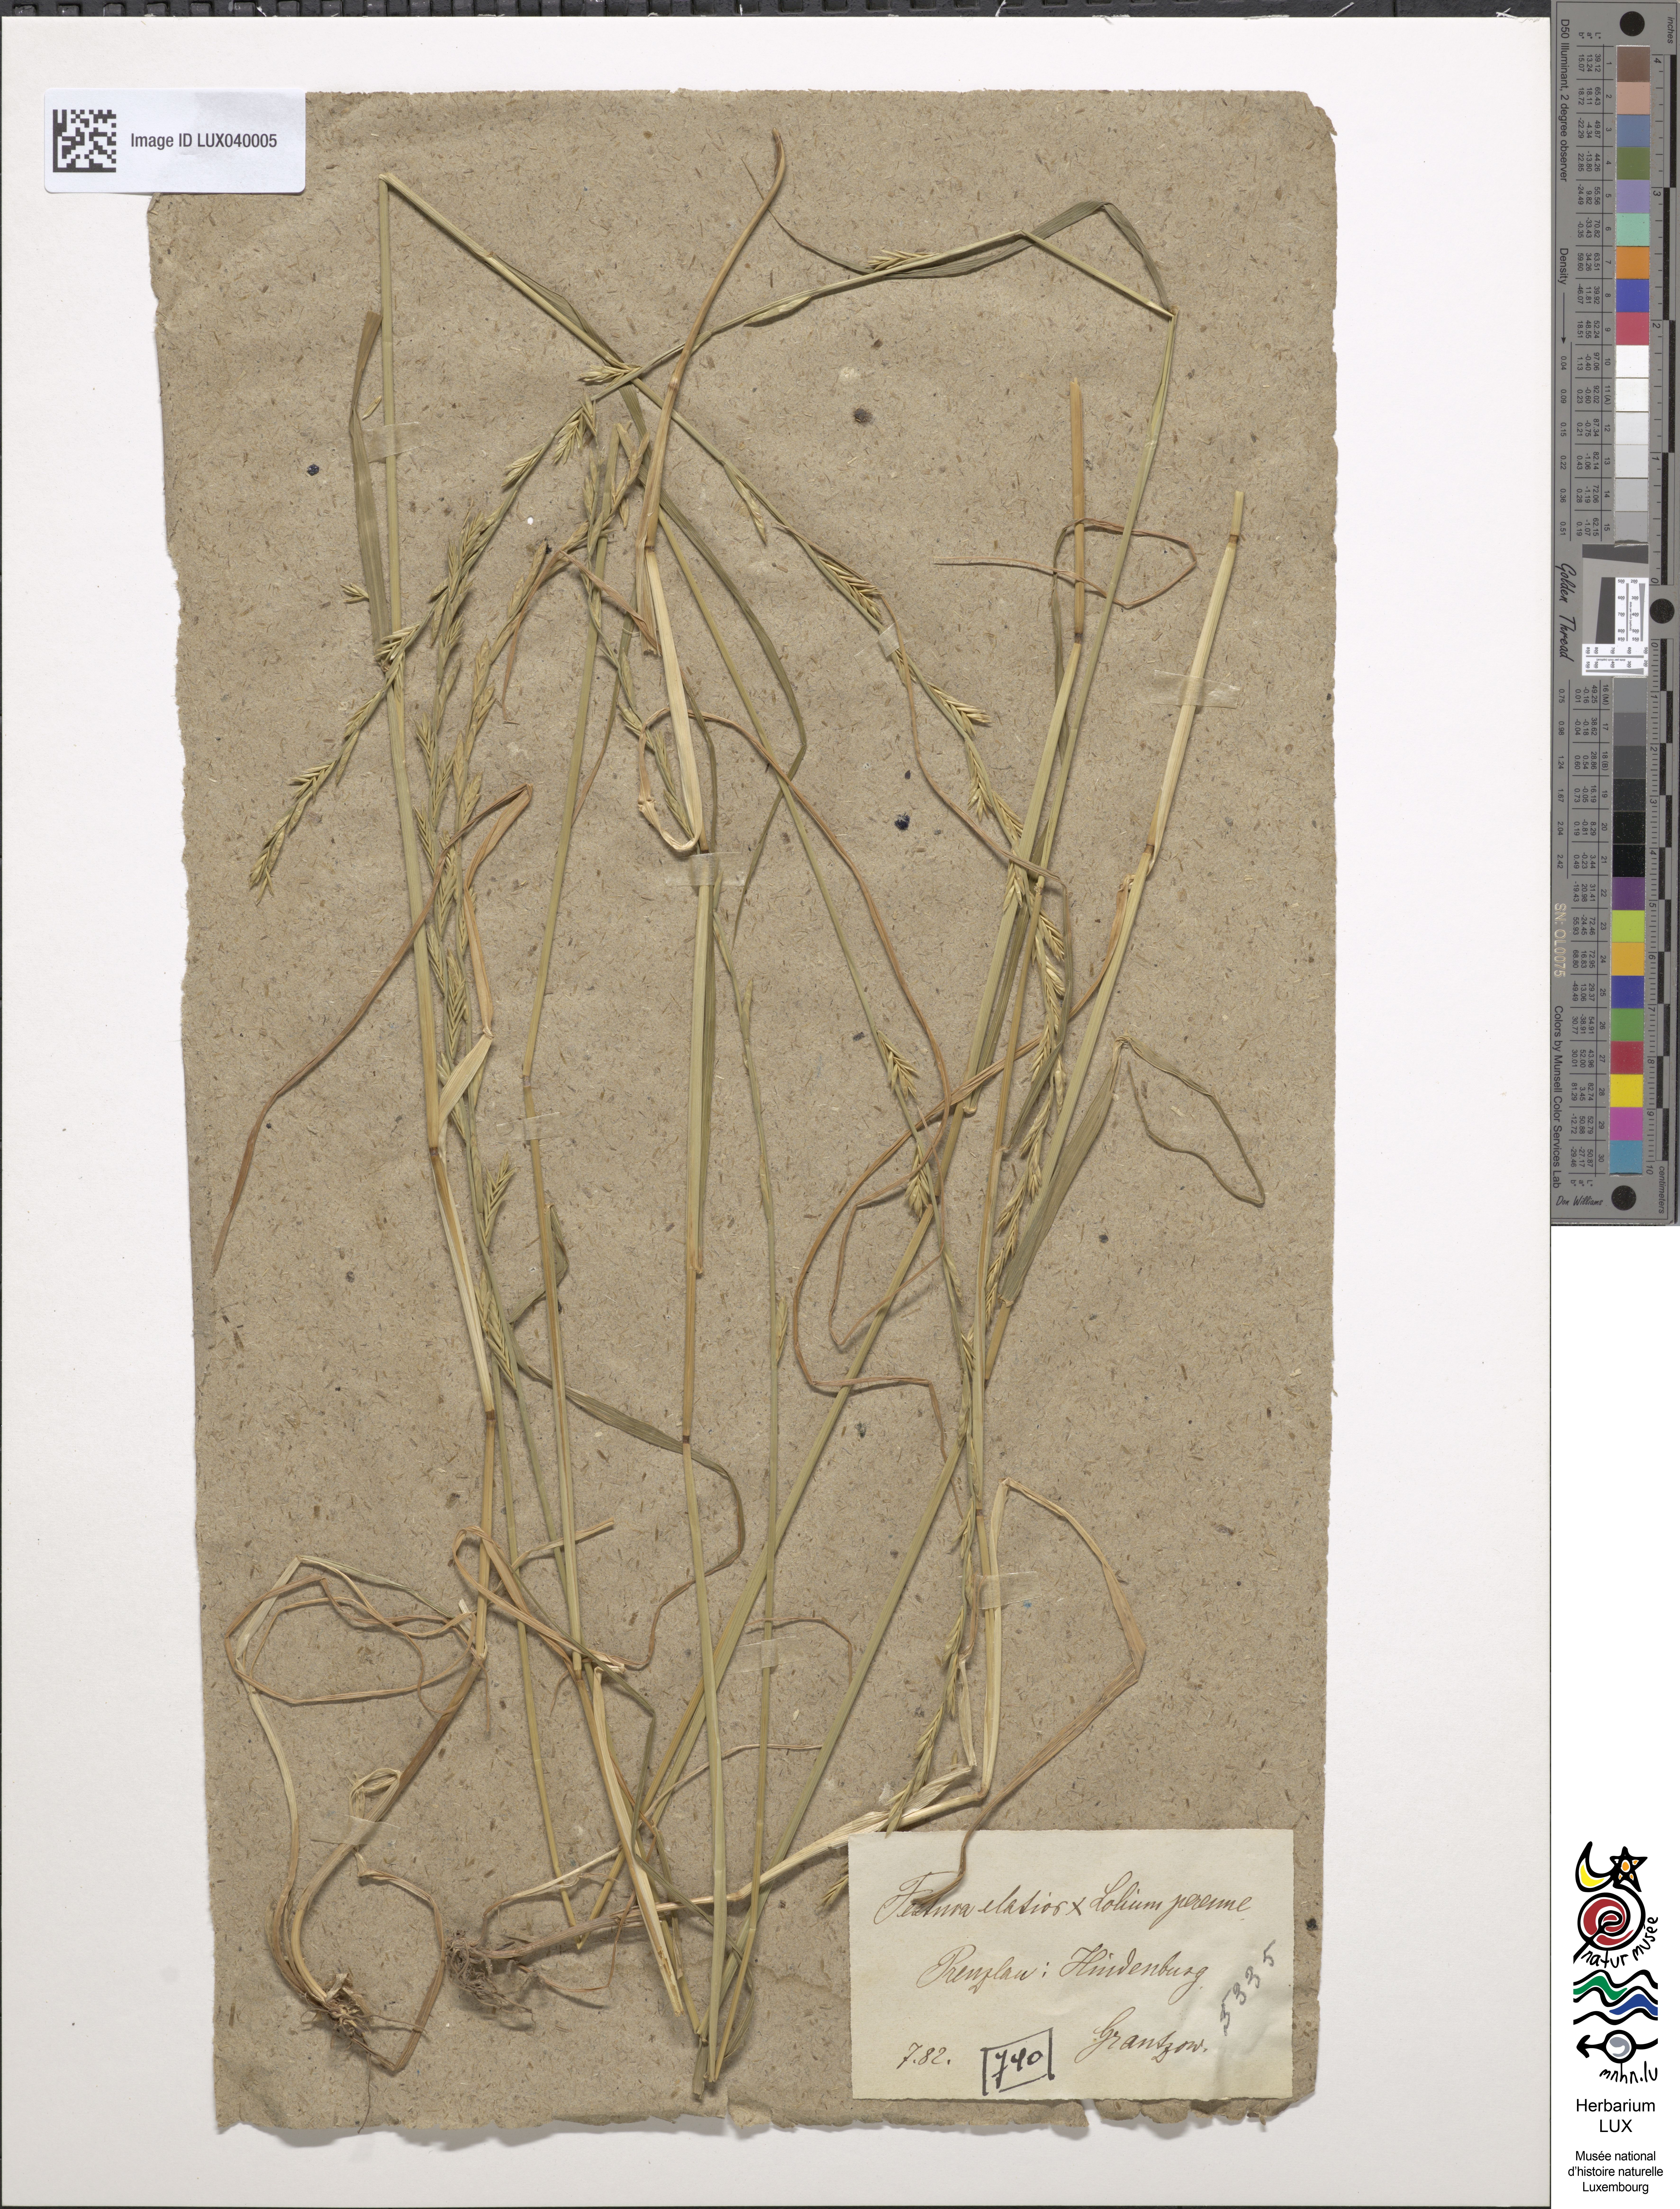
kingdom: Plantae
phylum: Tracheophyta
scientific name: Tracheophyta
